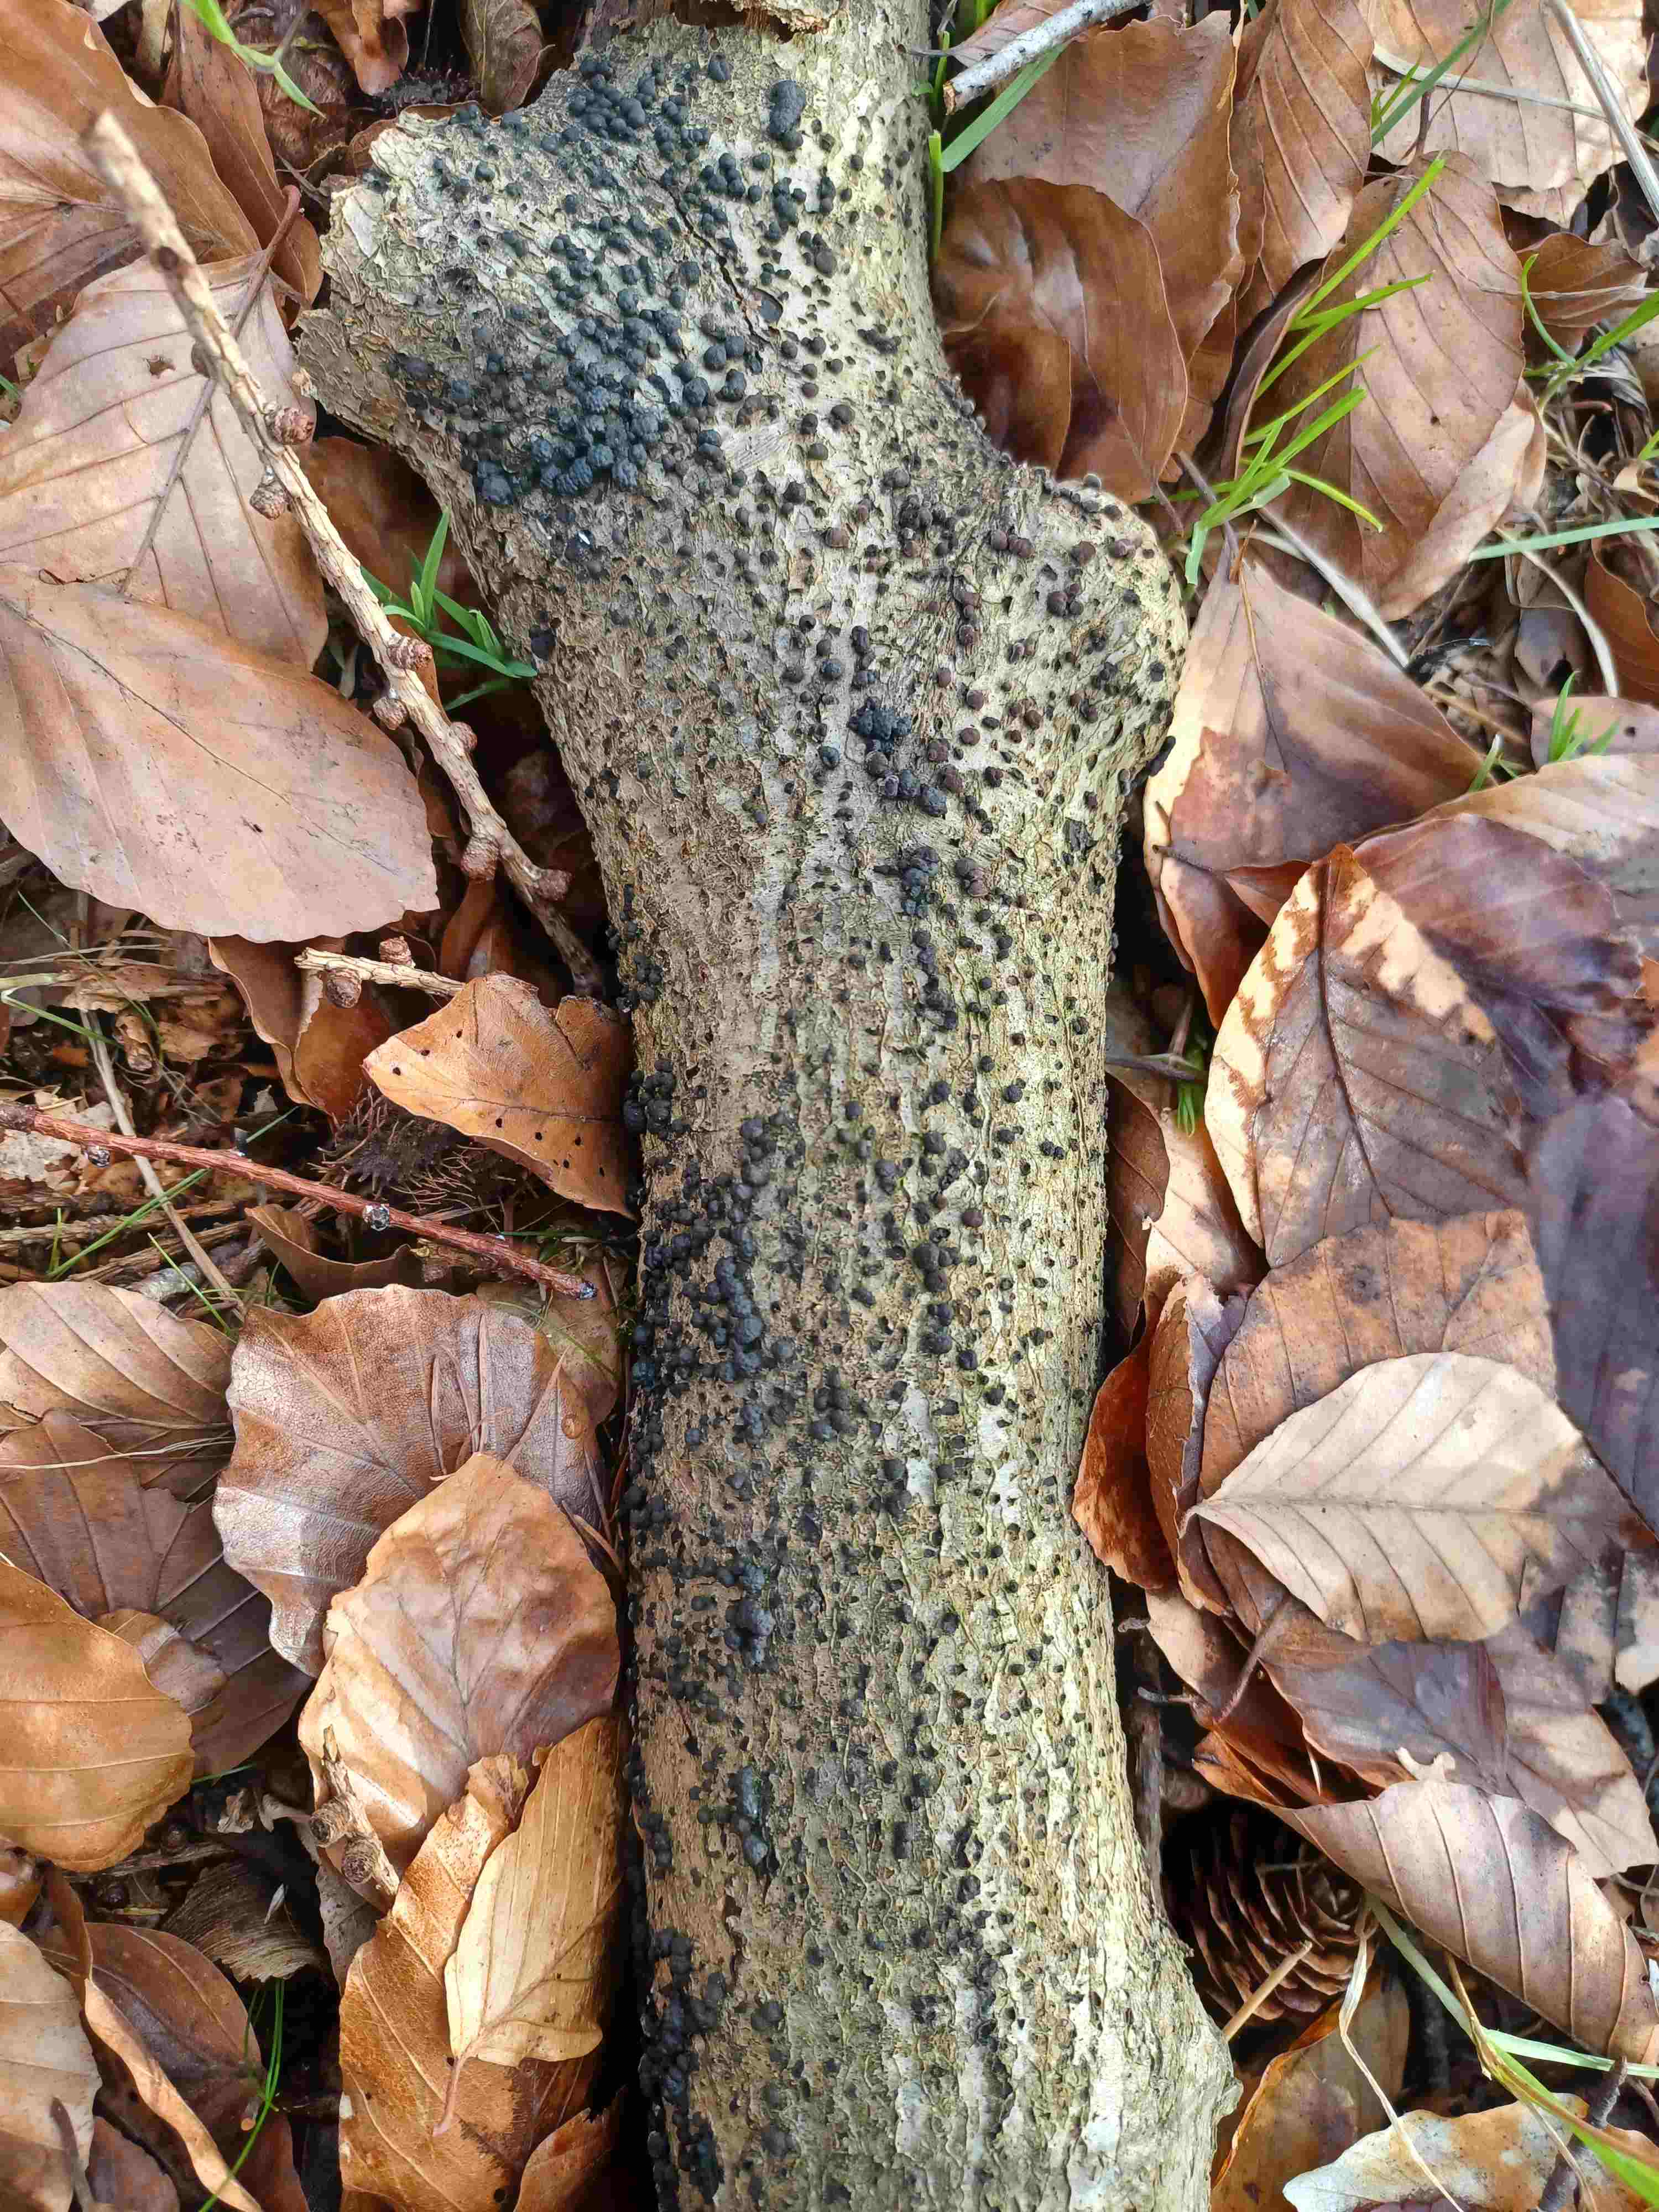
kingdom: Fungi
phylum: Ascomycota
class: Sordariomycetes
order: Xylariales
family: Hypoxylaceae
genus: Jackrogersella
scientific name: Jackrogersella cohaerens
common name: sammenflydende kulbær
